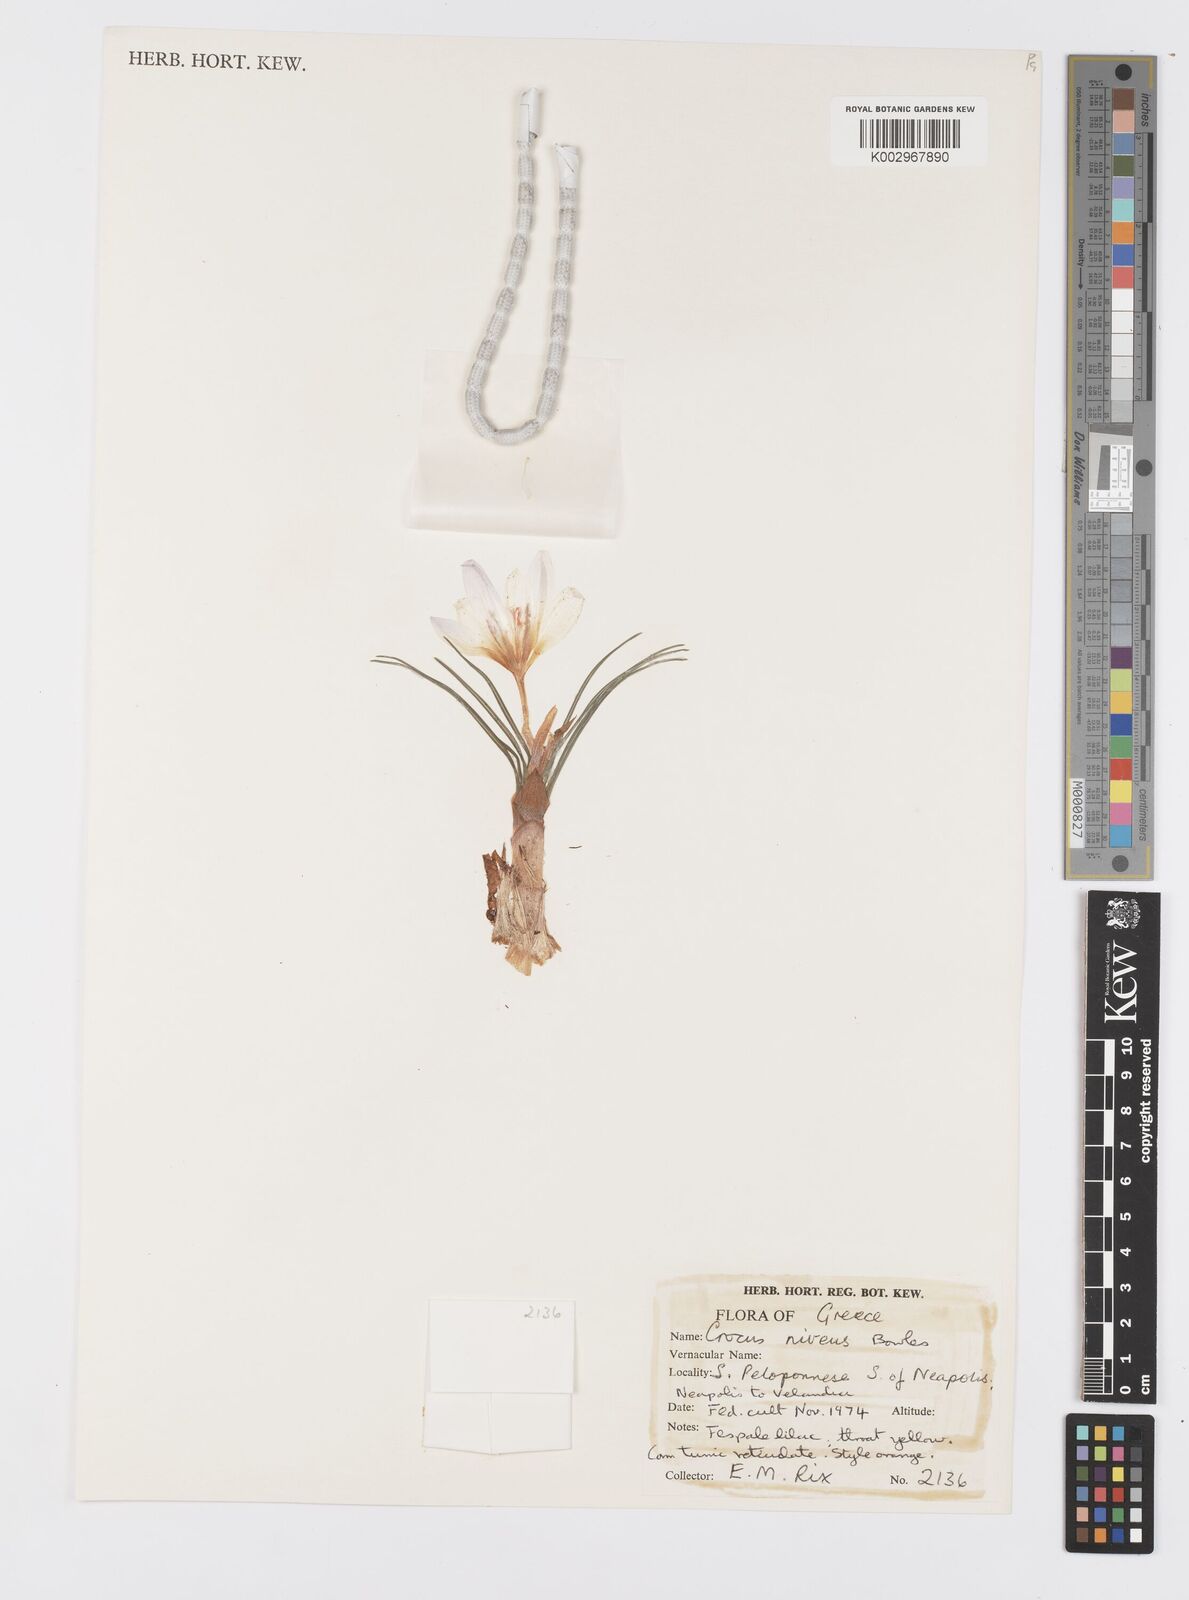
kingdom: Plantae
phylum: Tracheophyta
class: Liliopsida
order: Asparagales
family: Iridaceae
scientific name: Iridaceae
